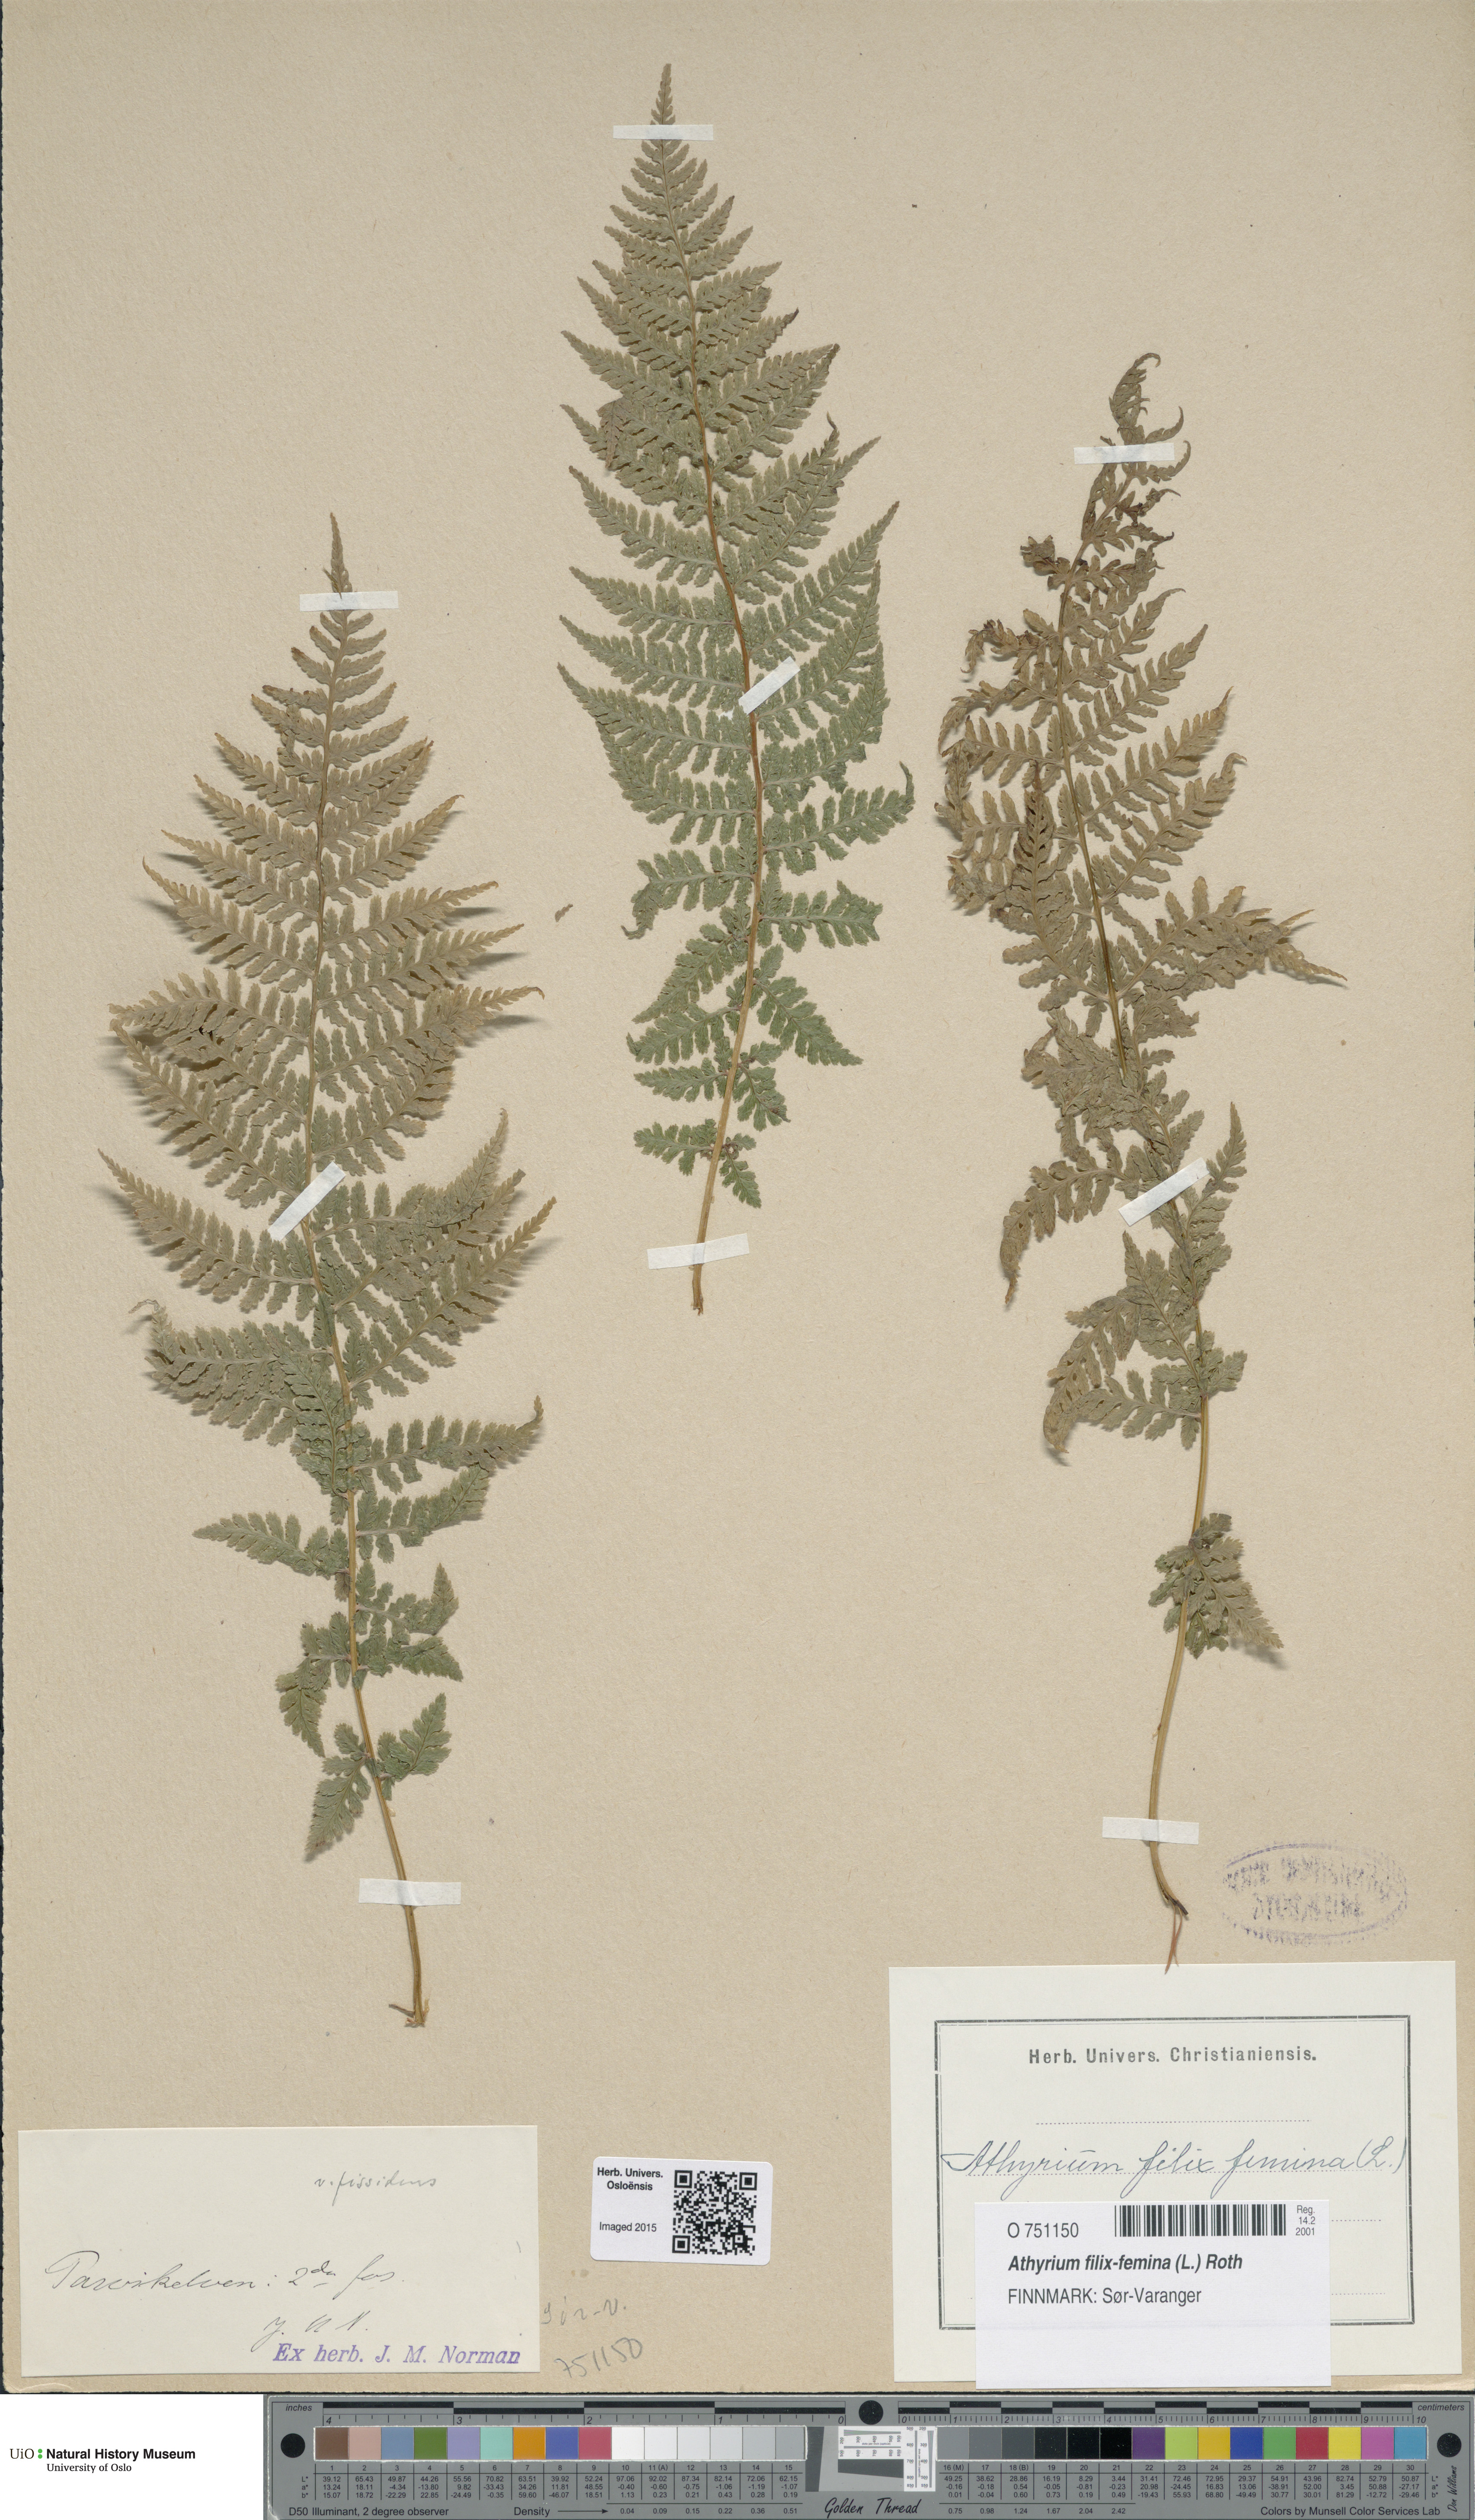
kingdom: Plantae
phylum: Tracheophyta
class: Polypodiopsida
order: Polypodiales
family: Athyriaceae
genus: Athyrium
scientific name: Athyrium filix-femina
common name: Lady fern
